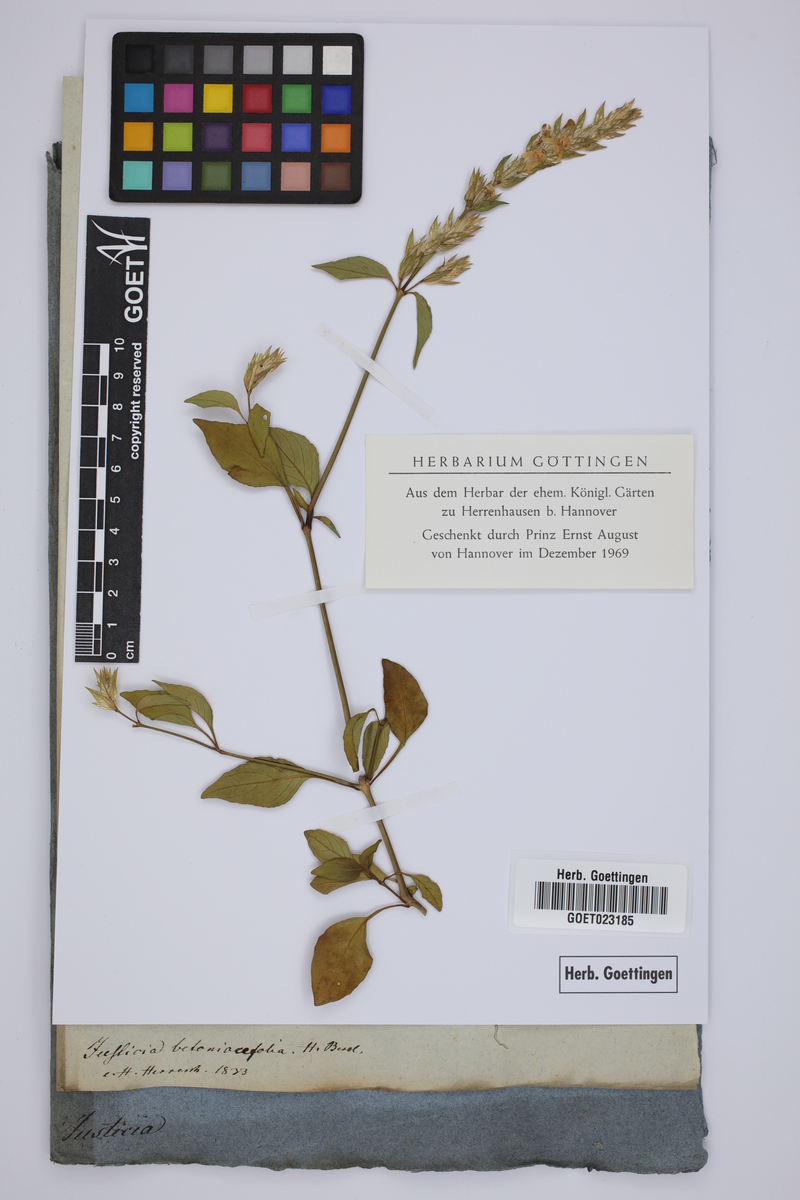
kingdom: Plantae
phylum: Tracheophyta
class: Magnoliopsida
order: Lamiales
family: Acanthaceae
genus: Nicoteba
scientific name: Nicoteba betonica
